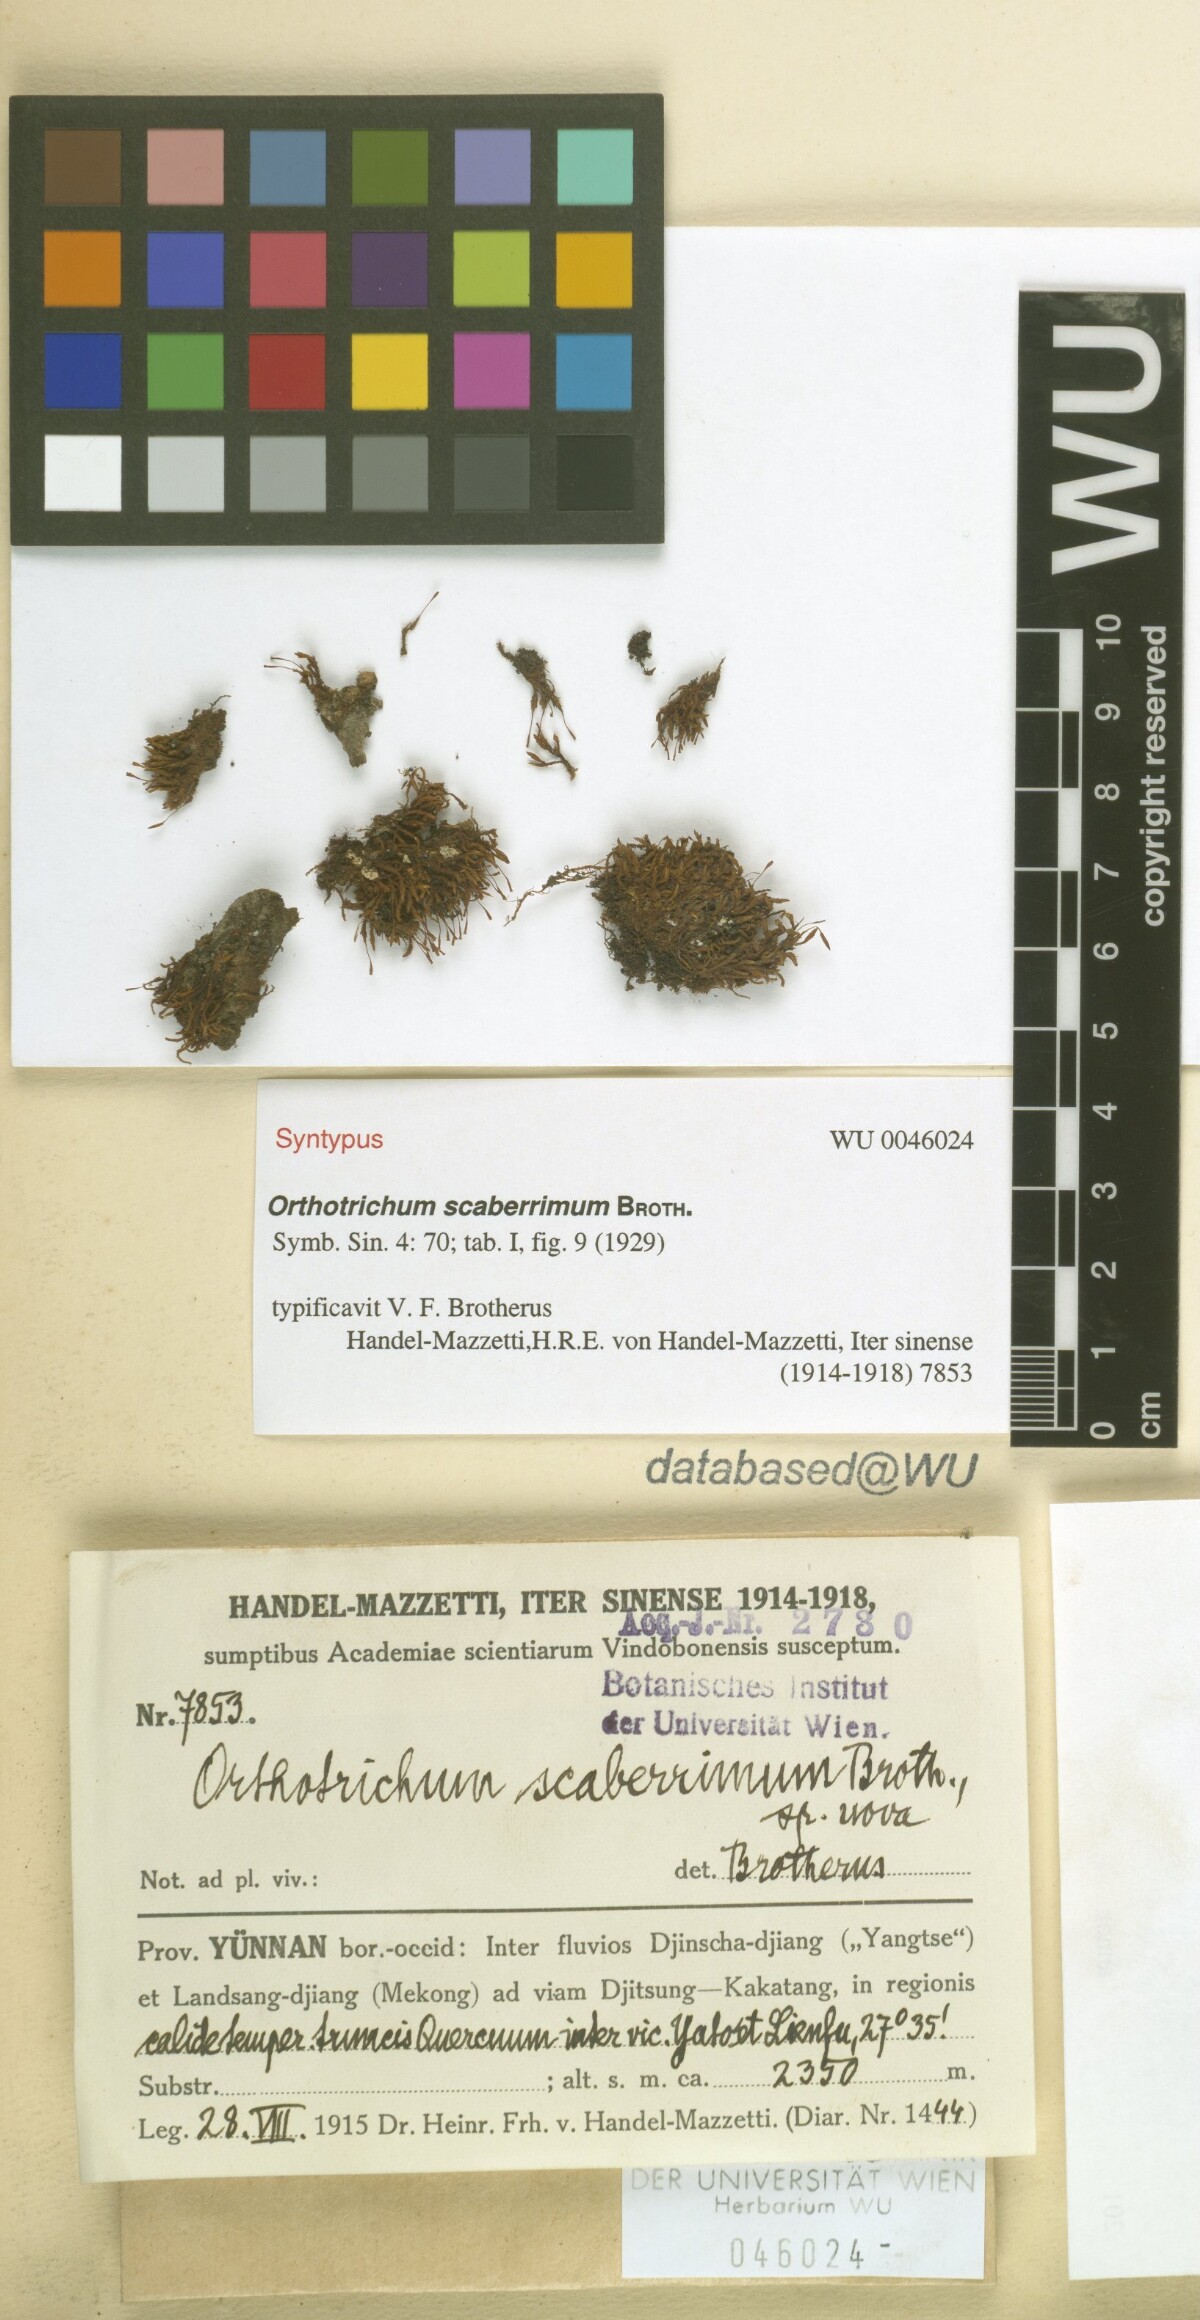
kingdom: Plantae
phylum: Bryophyta
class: Bryopsida
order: Orthotrichales
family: Orthotrichaceae
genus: Florschuetziella
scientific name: Florschuetziella scaberrima
